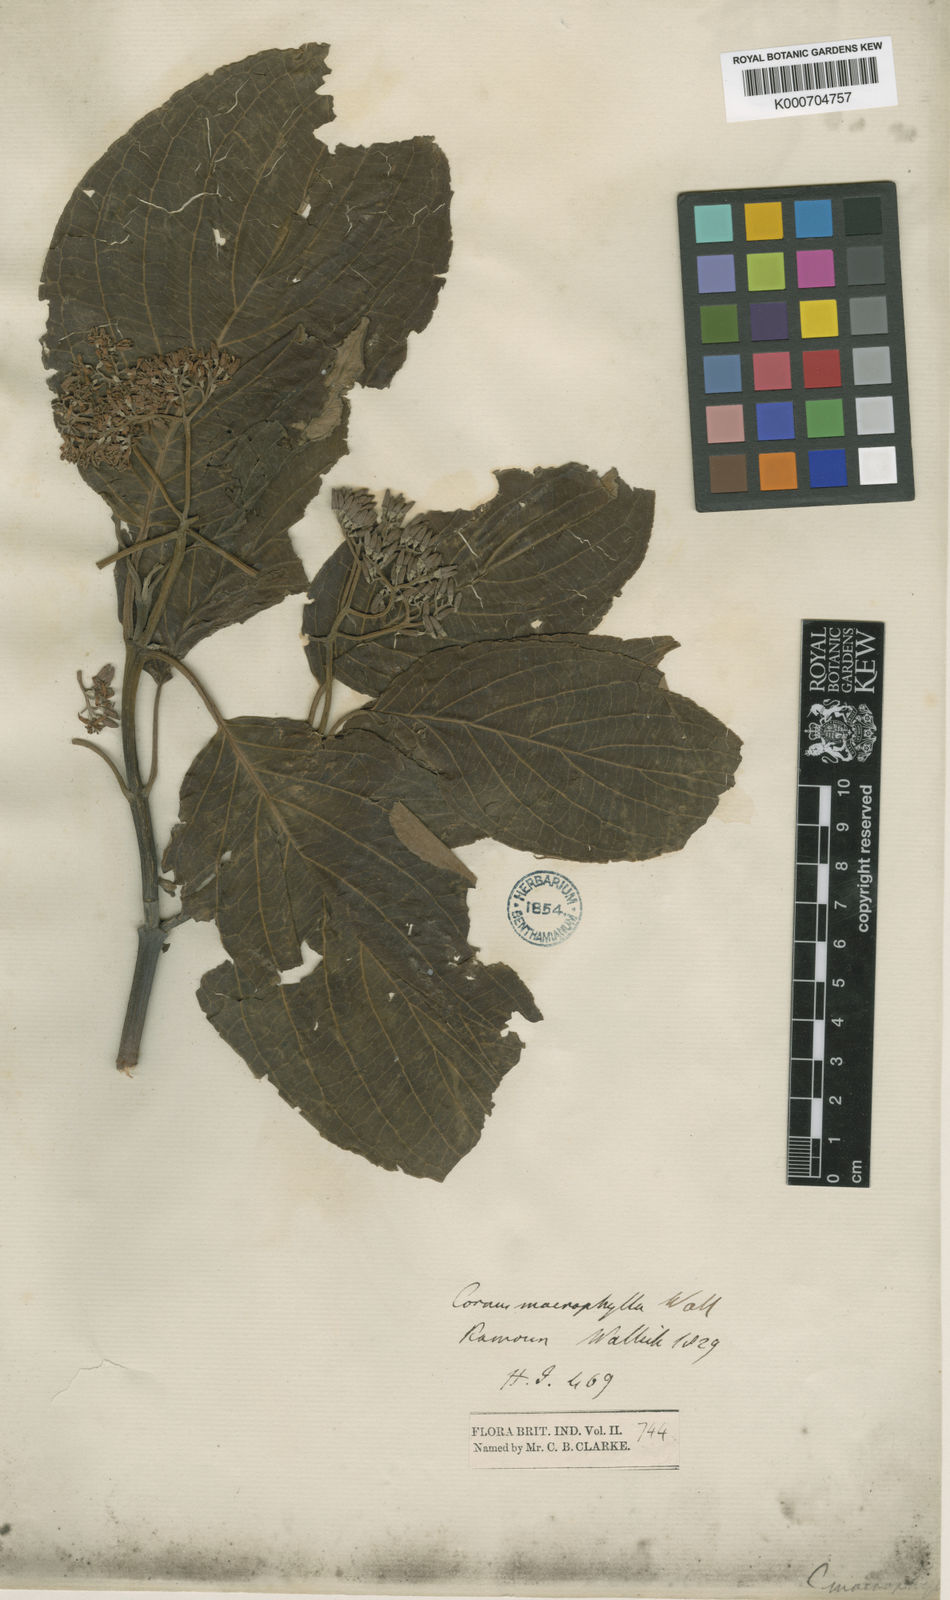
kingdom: Plantae
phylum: Tracheophyta
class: Magnoliopsida
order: Cornales
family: Cornaceae
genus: Cornus
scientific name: Cornus macrophylla
